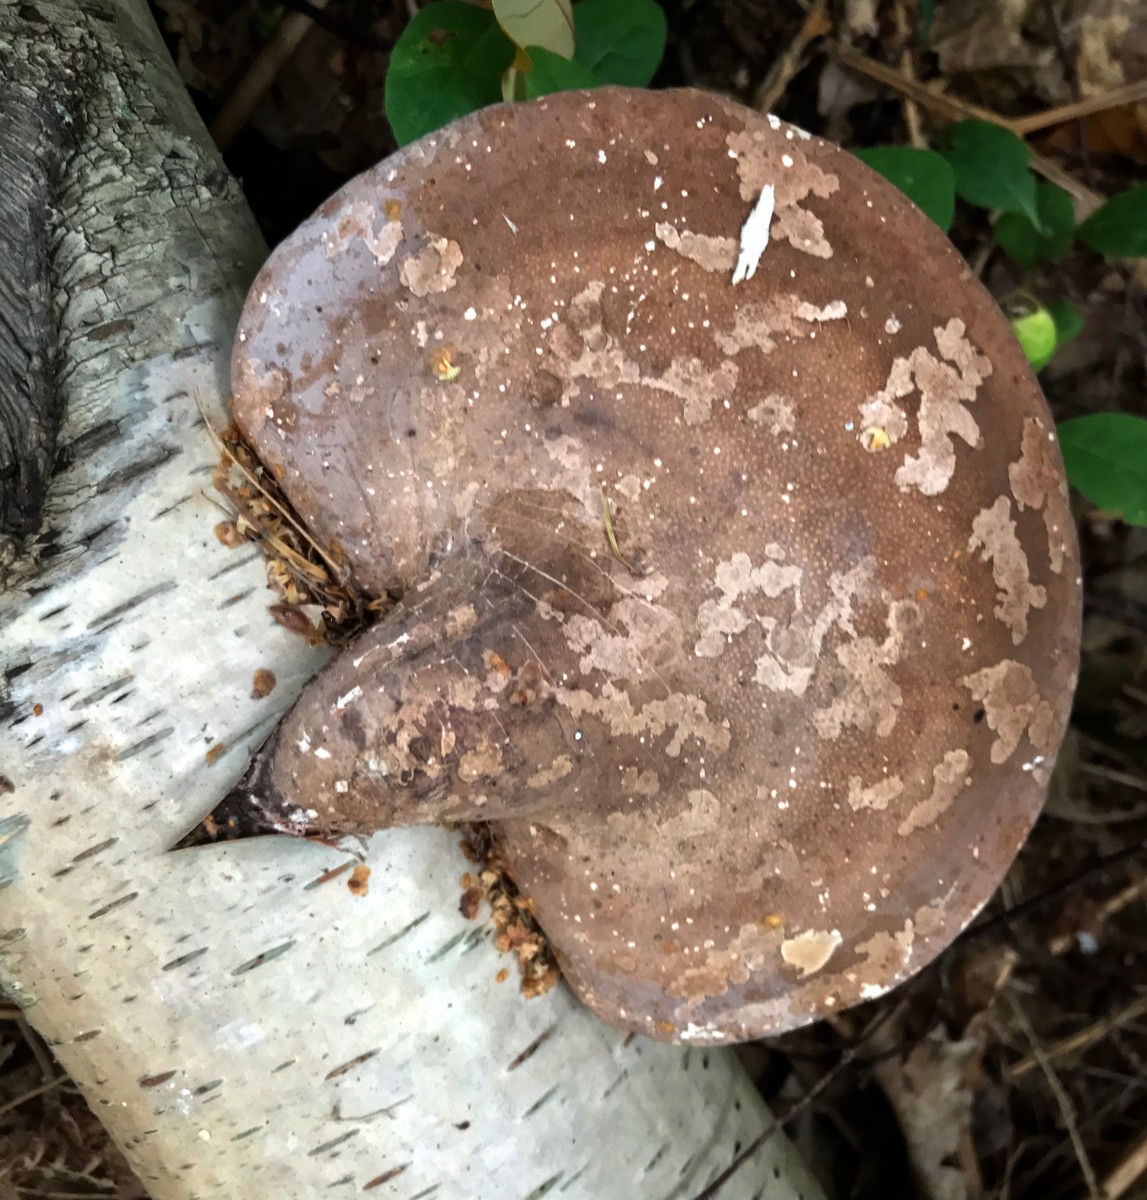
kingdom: Fungi
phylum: Basidiomycota
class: Agaricomycetes
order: Polyporales
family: Fomitopsidaceae
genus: Fomitopsis
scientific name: Fomitopsis betulina
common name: birkeporesvamp
